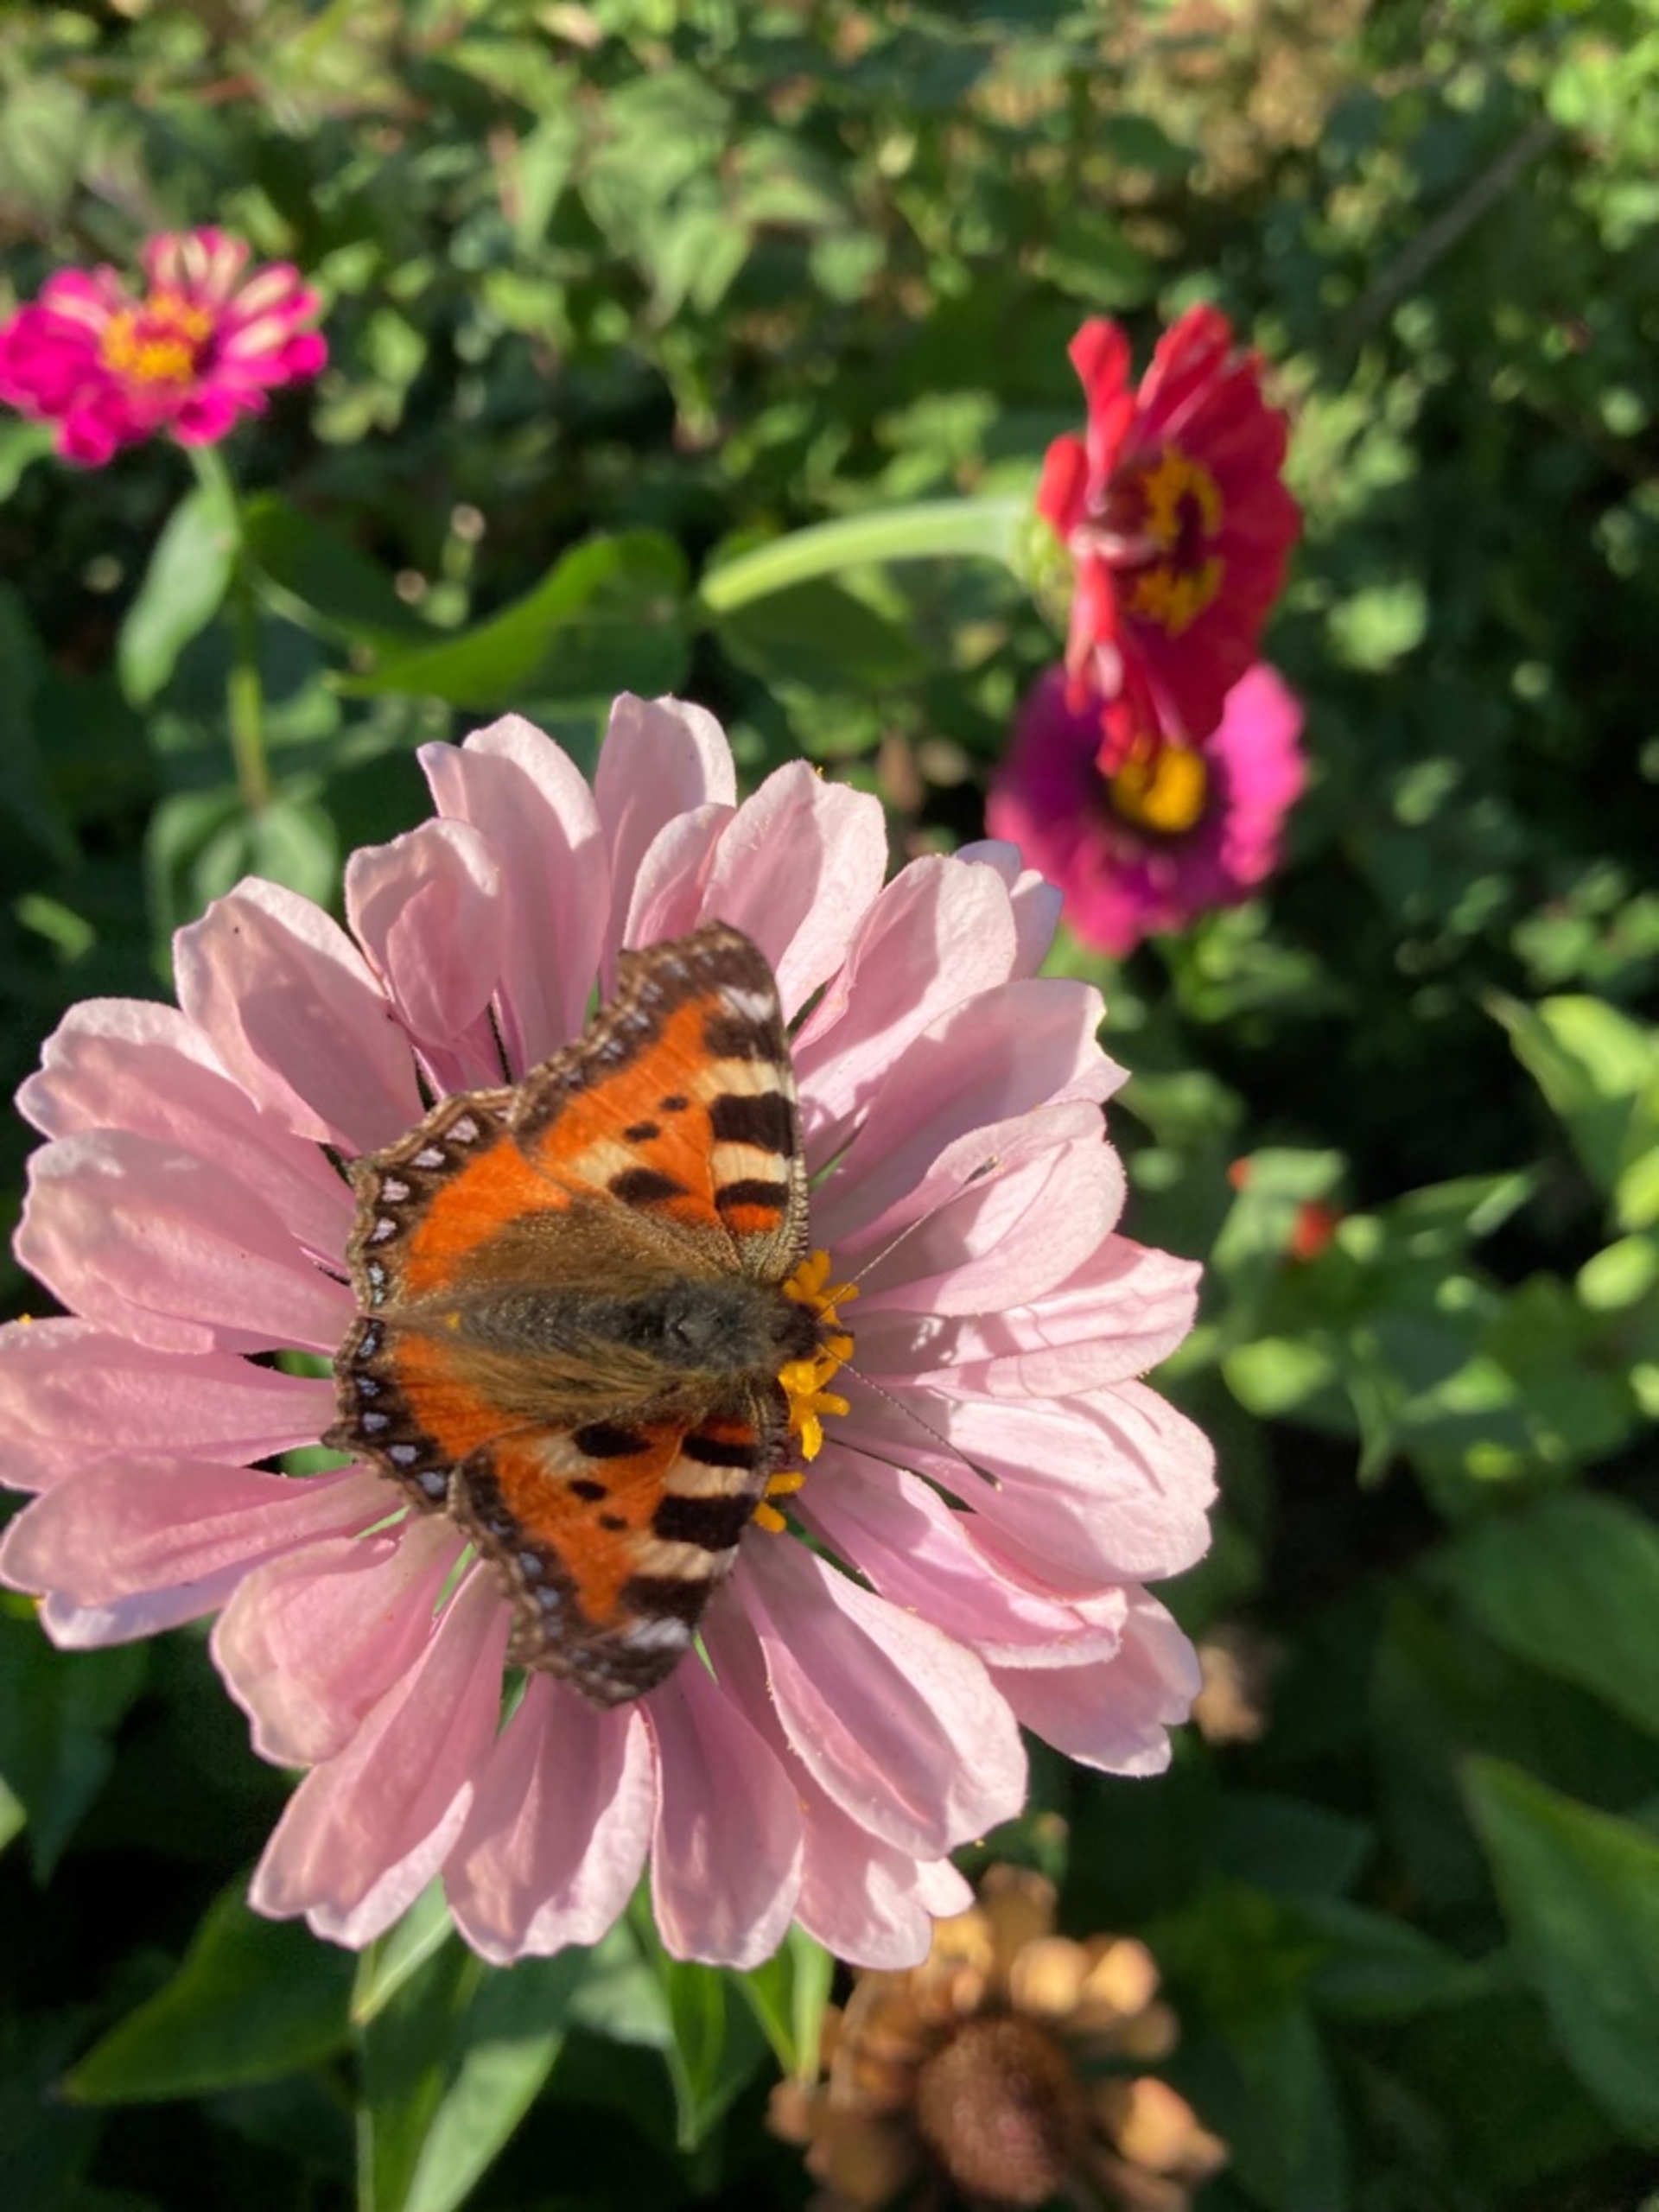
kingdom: Animalia
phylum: Arthropoda
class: Insecta
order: Lepidoptera
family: Nymphalidae
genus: Aglais
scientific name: Aglais urticae
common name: Nældens takvinge
